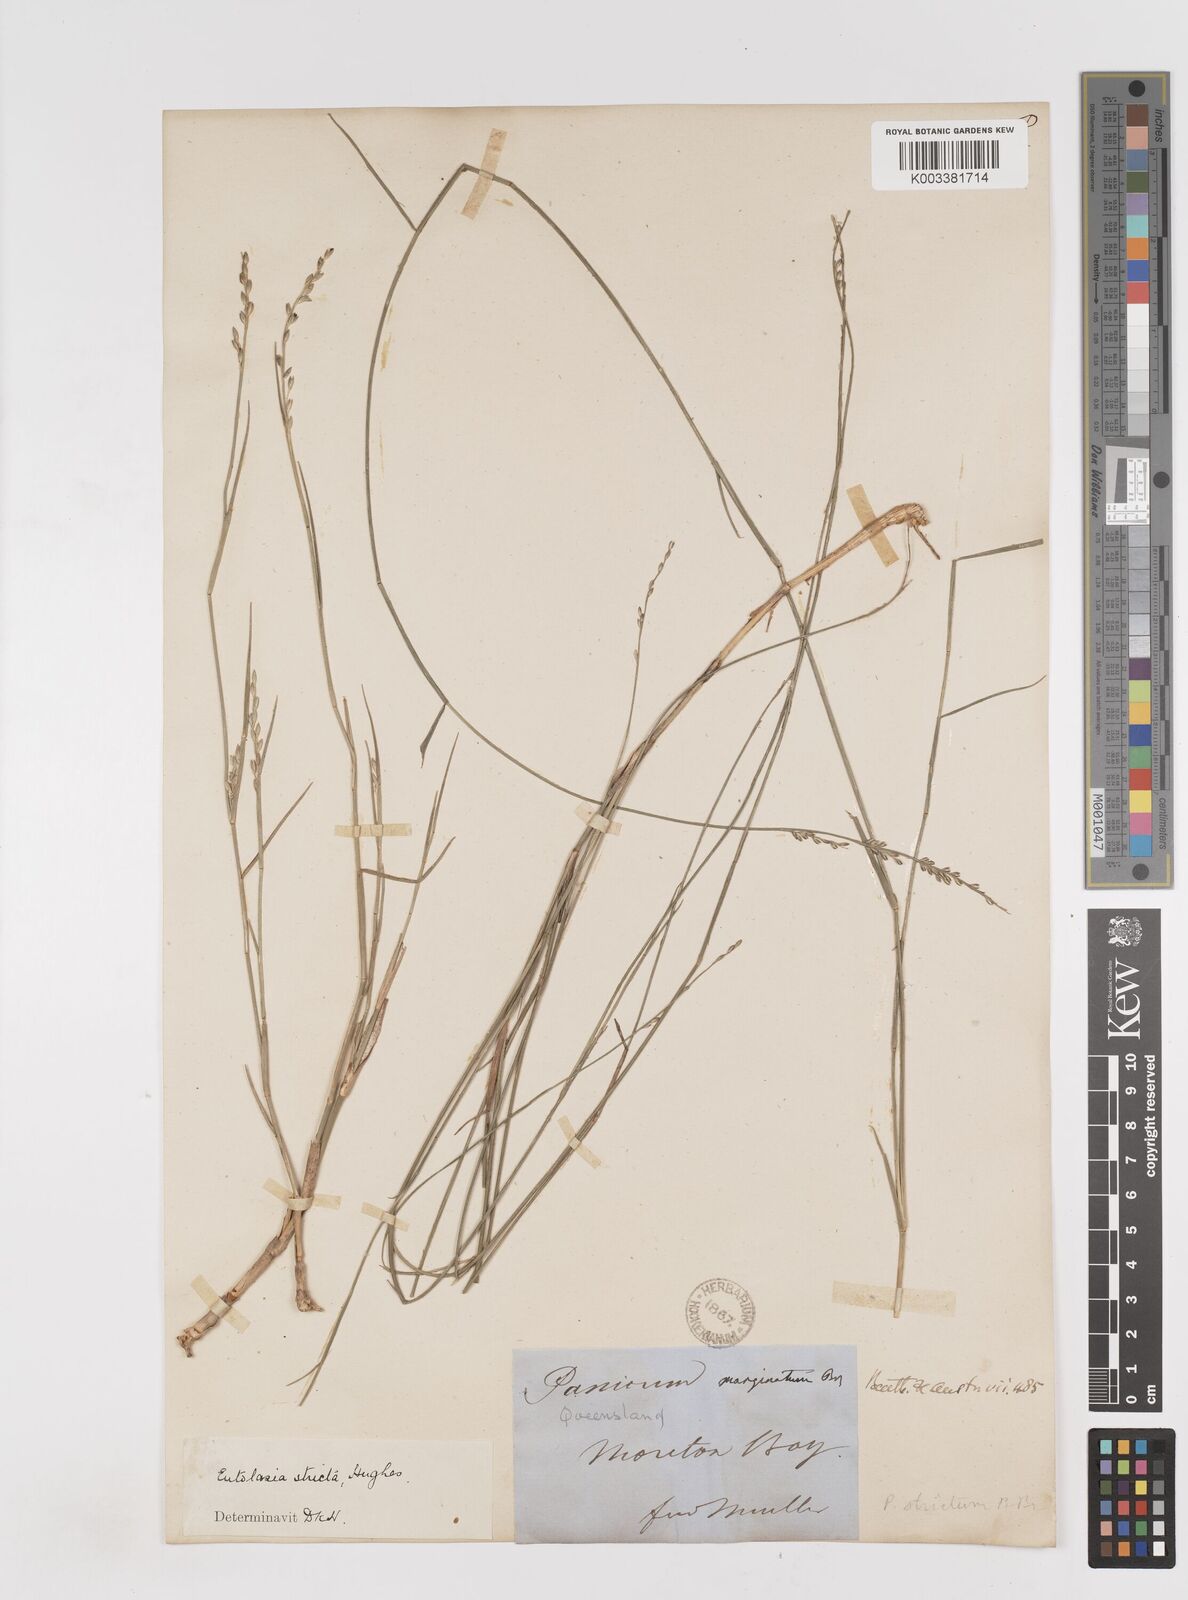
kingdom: Plantae
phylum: Tracheophyta
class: Liliopsida
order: Poales
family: Poaceae
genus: Entolasia
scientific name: Entolasia stricta
